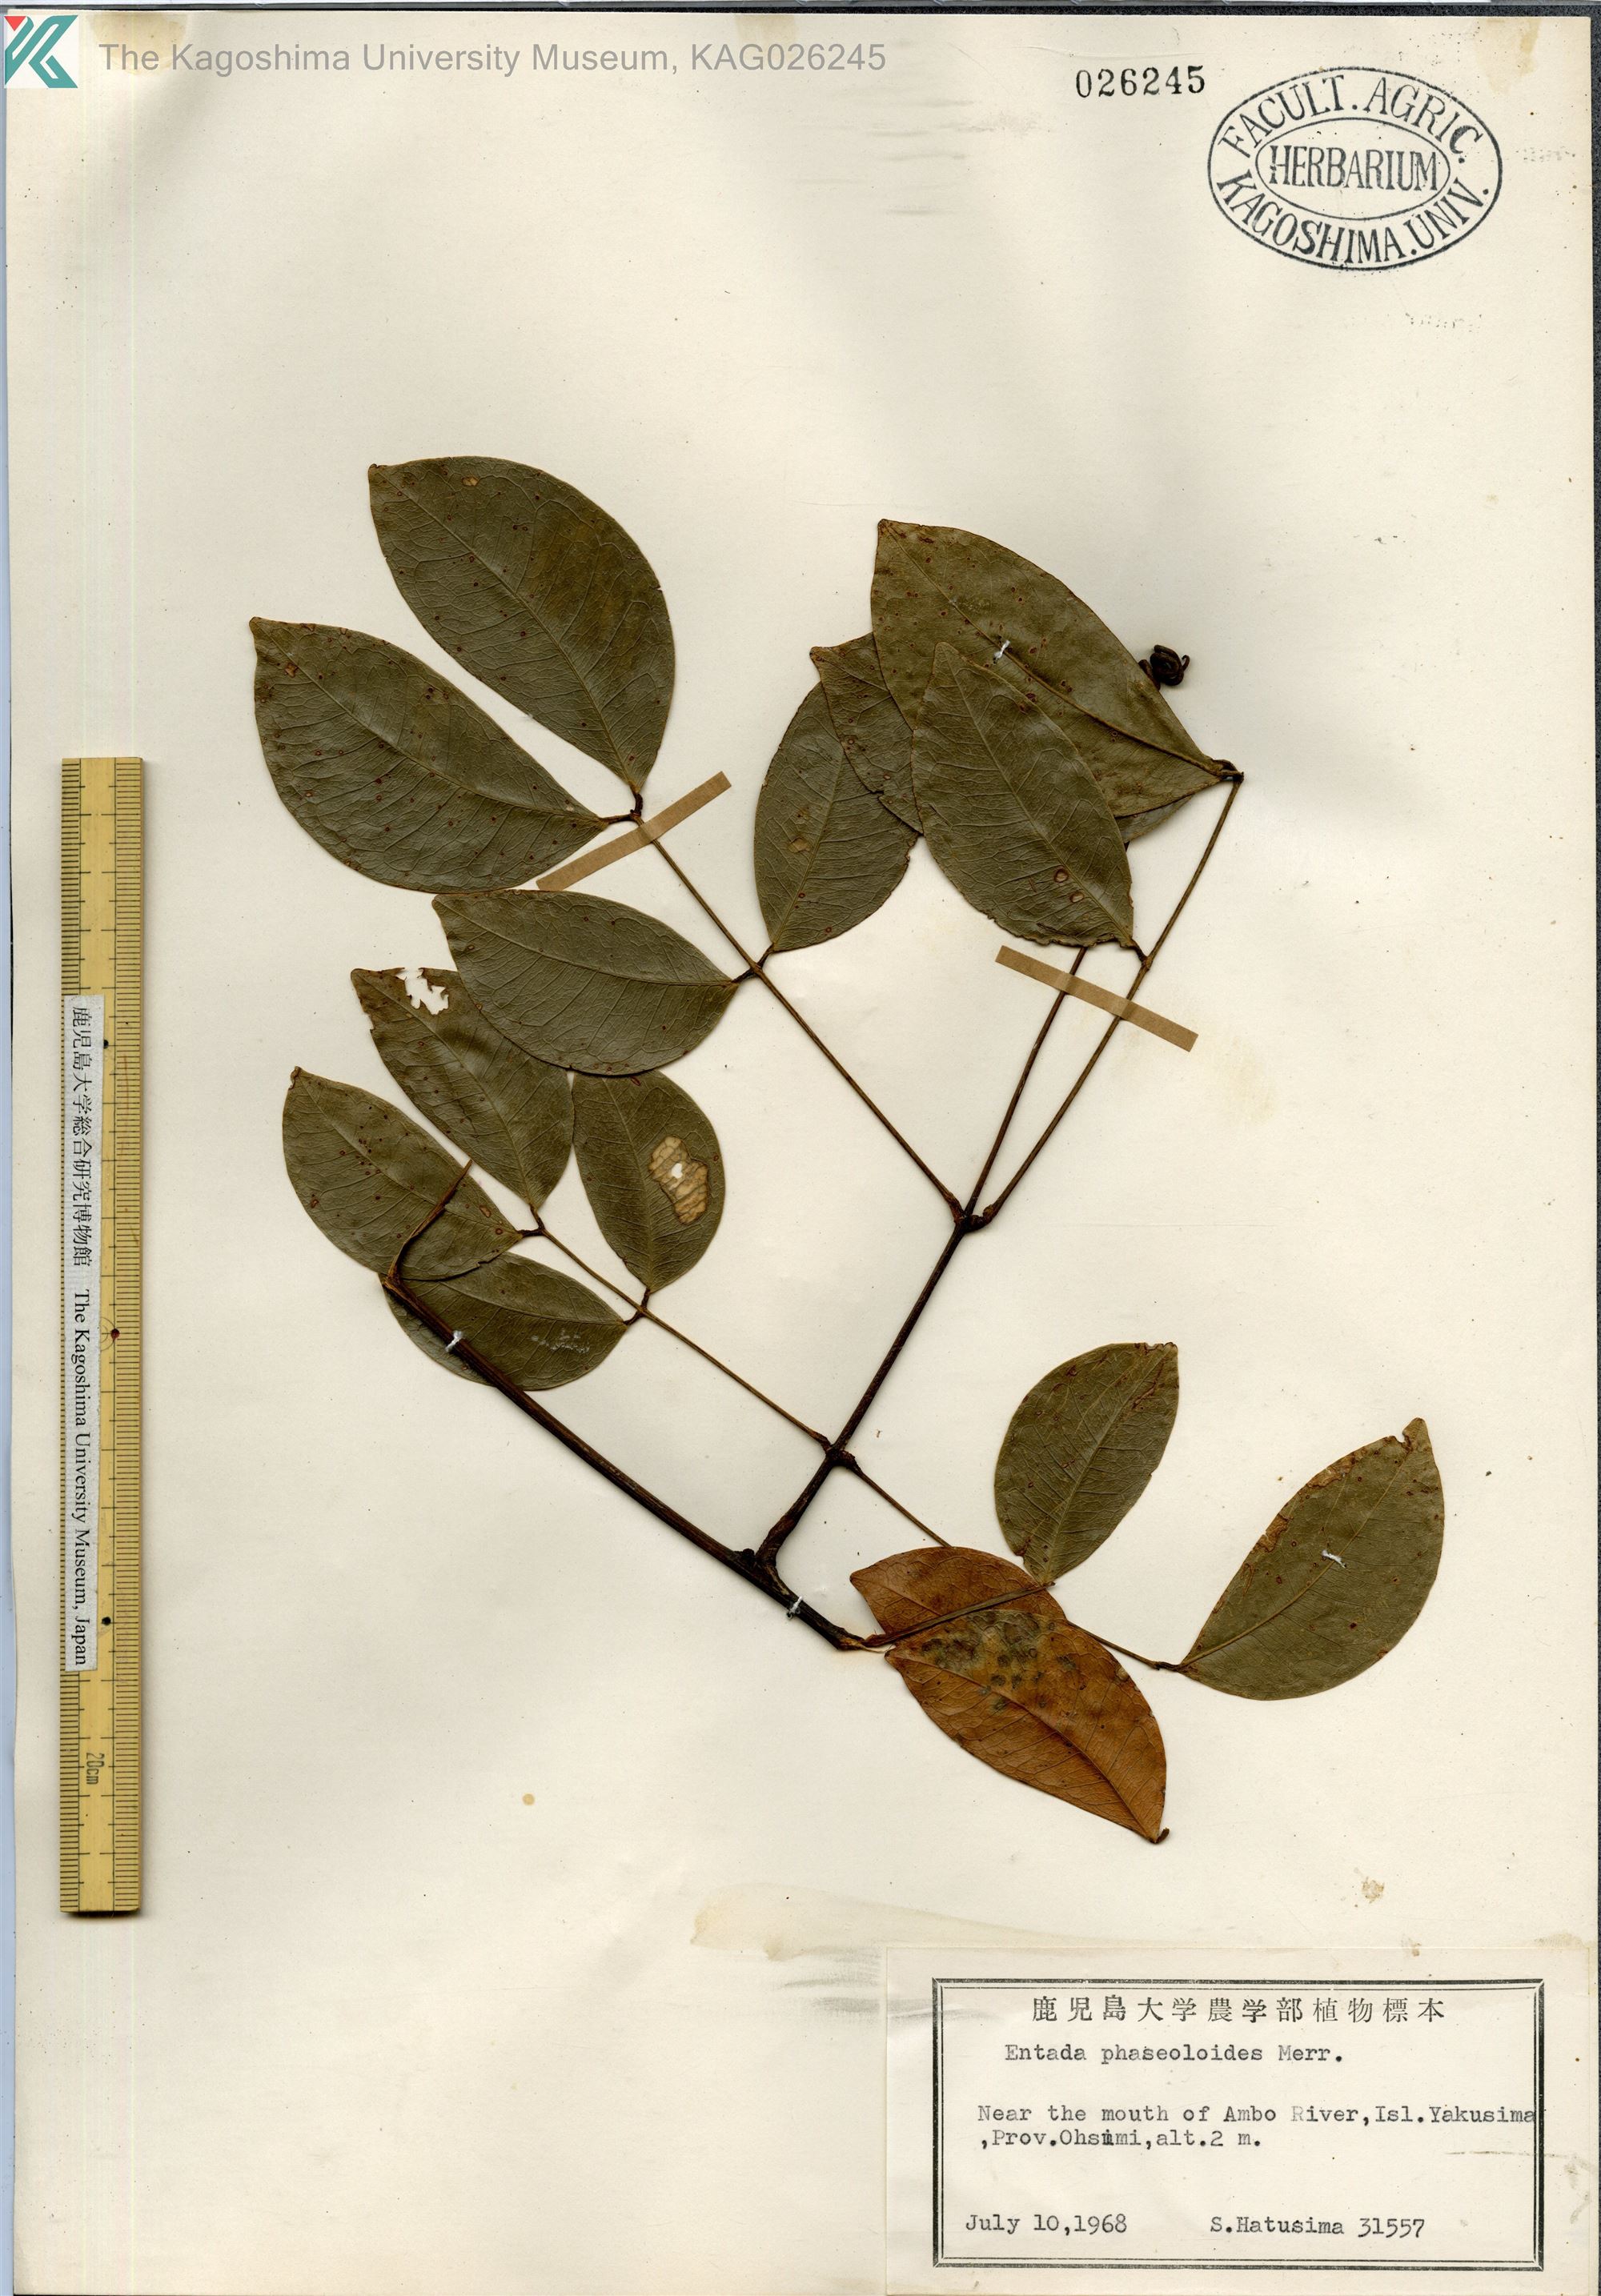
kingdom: Plantae
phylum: Tracheophyta
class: Magnoliopsida
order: Fabales
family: Fabaceae
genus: Entada
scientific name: Entada tonkinensis
